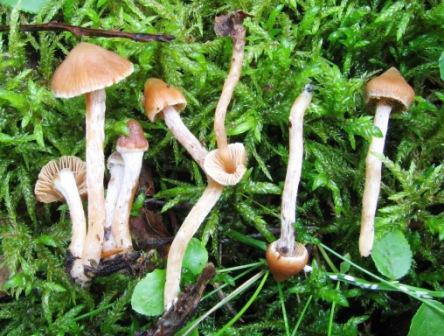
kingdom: Fungi
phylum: Basidiomycota
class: Agaricomycetes
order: Agaricales
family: Cortinariaceae
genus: Cortinarius
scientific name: Cortinarius acutus
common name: spids slørhat
